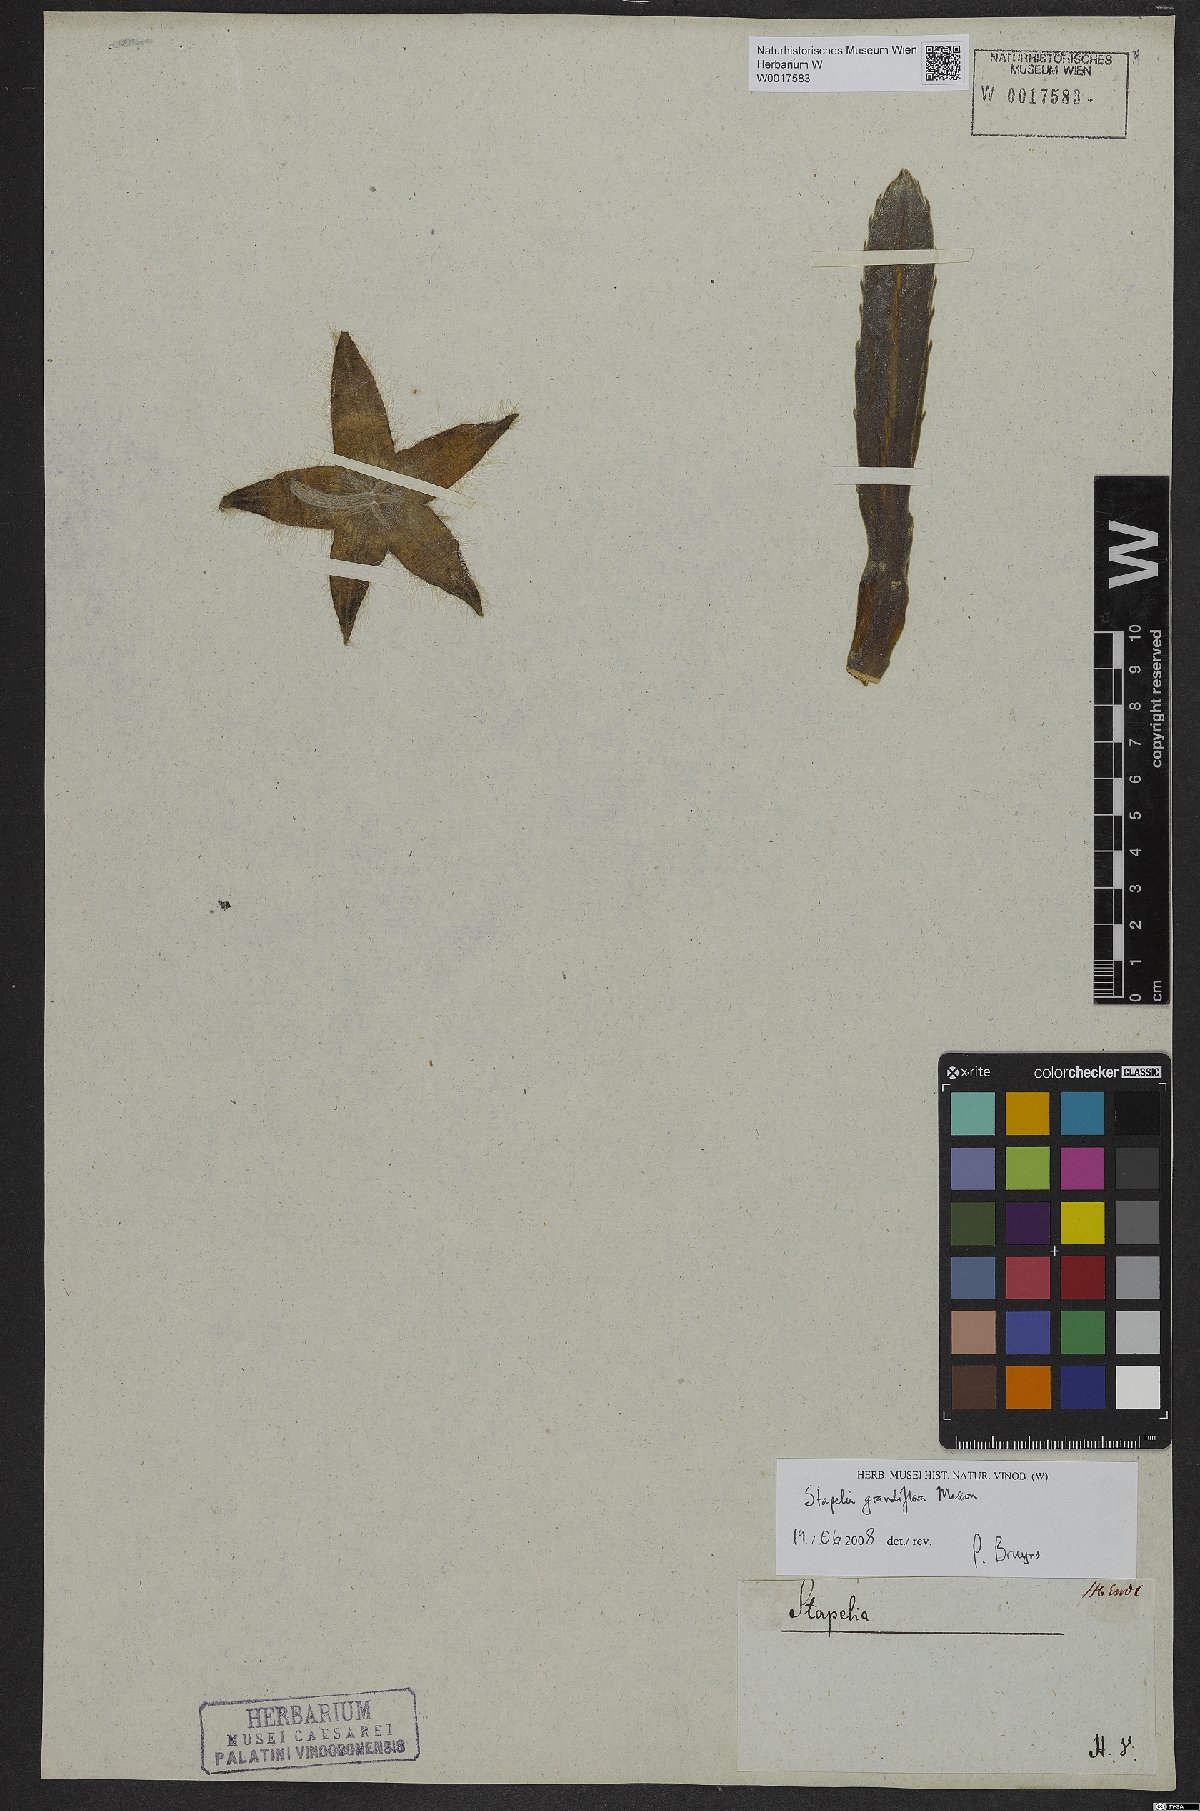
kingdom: Plantae
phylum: Tracheophyta
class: Magnoliopsida
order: Gentianales
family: Apocynaceae
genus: Ceropegia
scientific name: Ceropegia grandiflora
